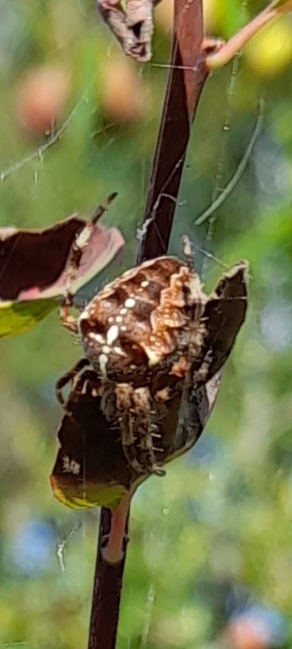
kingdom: Animalia
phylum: Arthropoda
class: Arachnida
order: Araneae
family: Araneidae
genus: Araneus
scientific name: Araneus diadematus
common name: Korsedderkop
